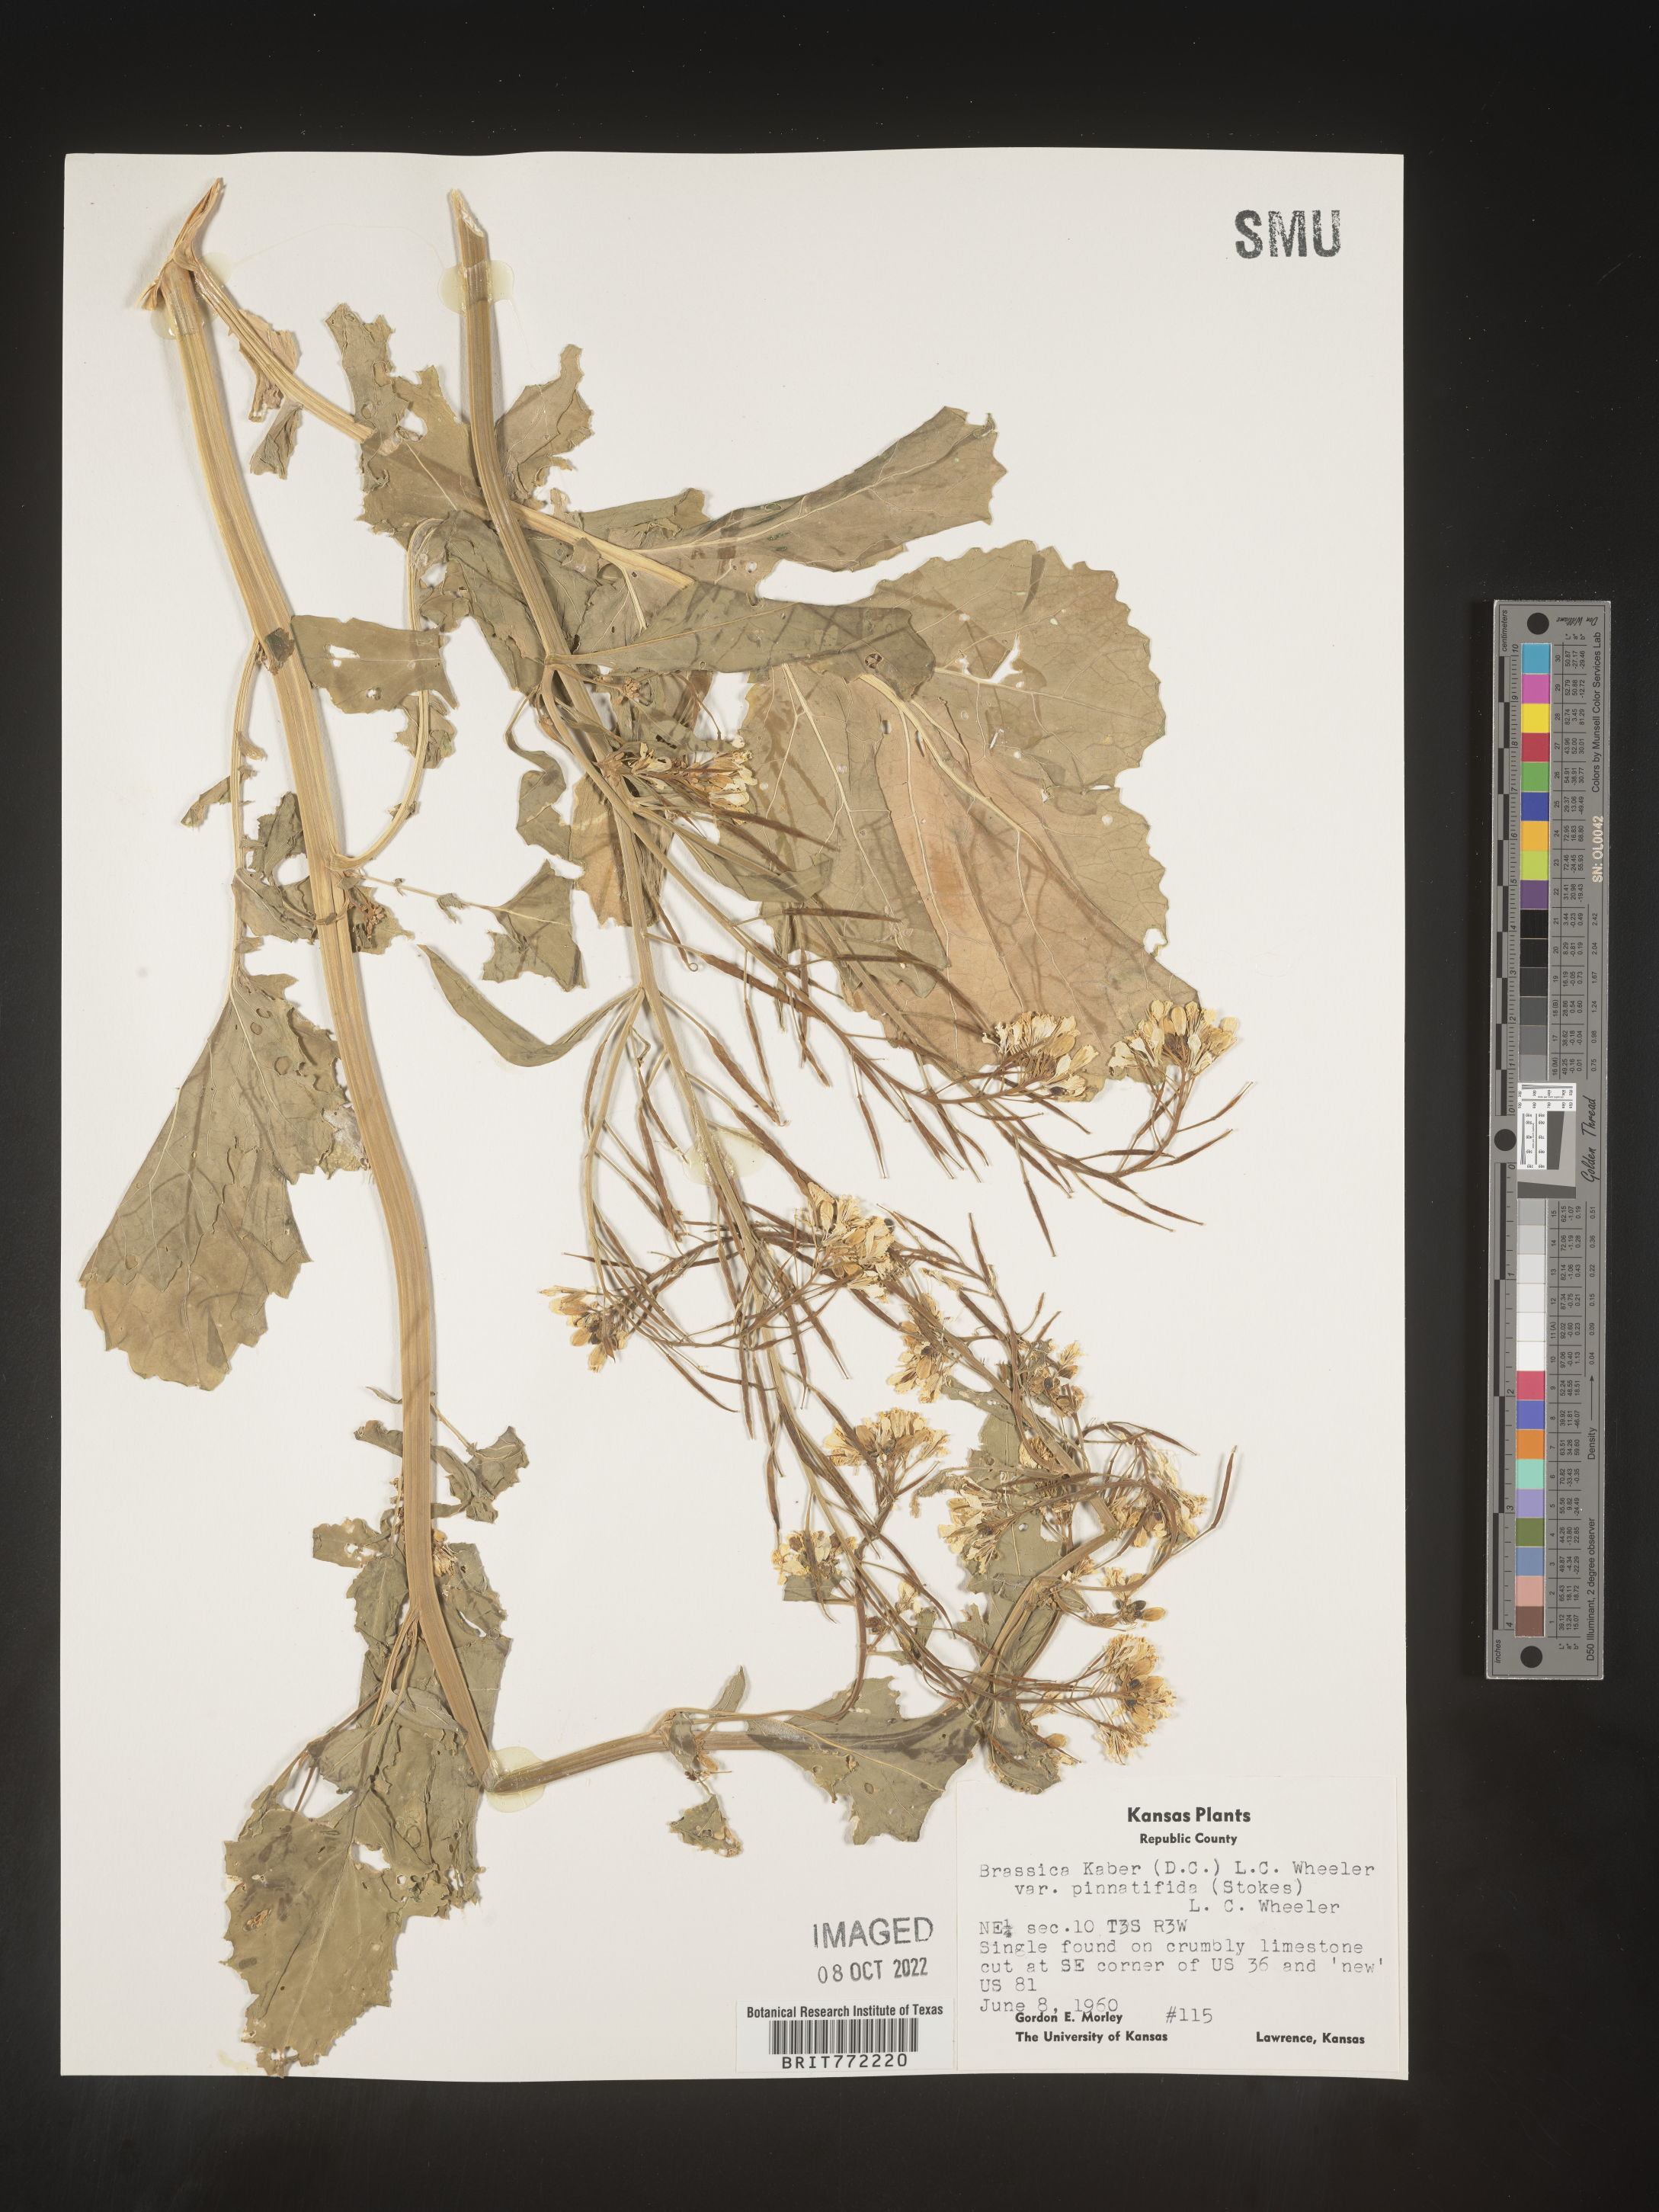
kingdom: Plantae
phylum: Tracheophyta
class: Magnoliopsida
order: Brassicales
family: Brassicaceae
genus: Sinapis
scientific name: Sinapis arvensis
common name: Charlock
